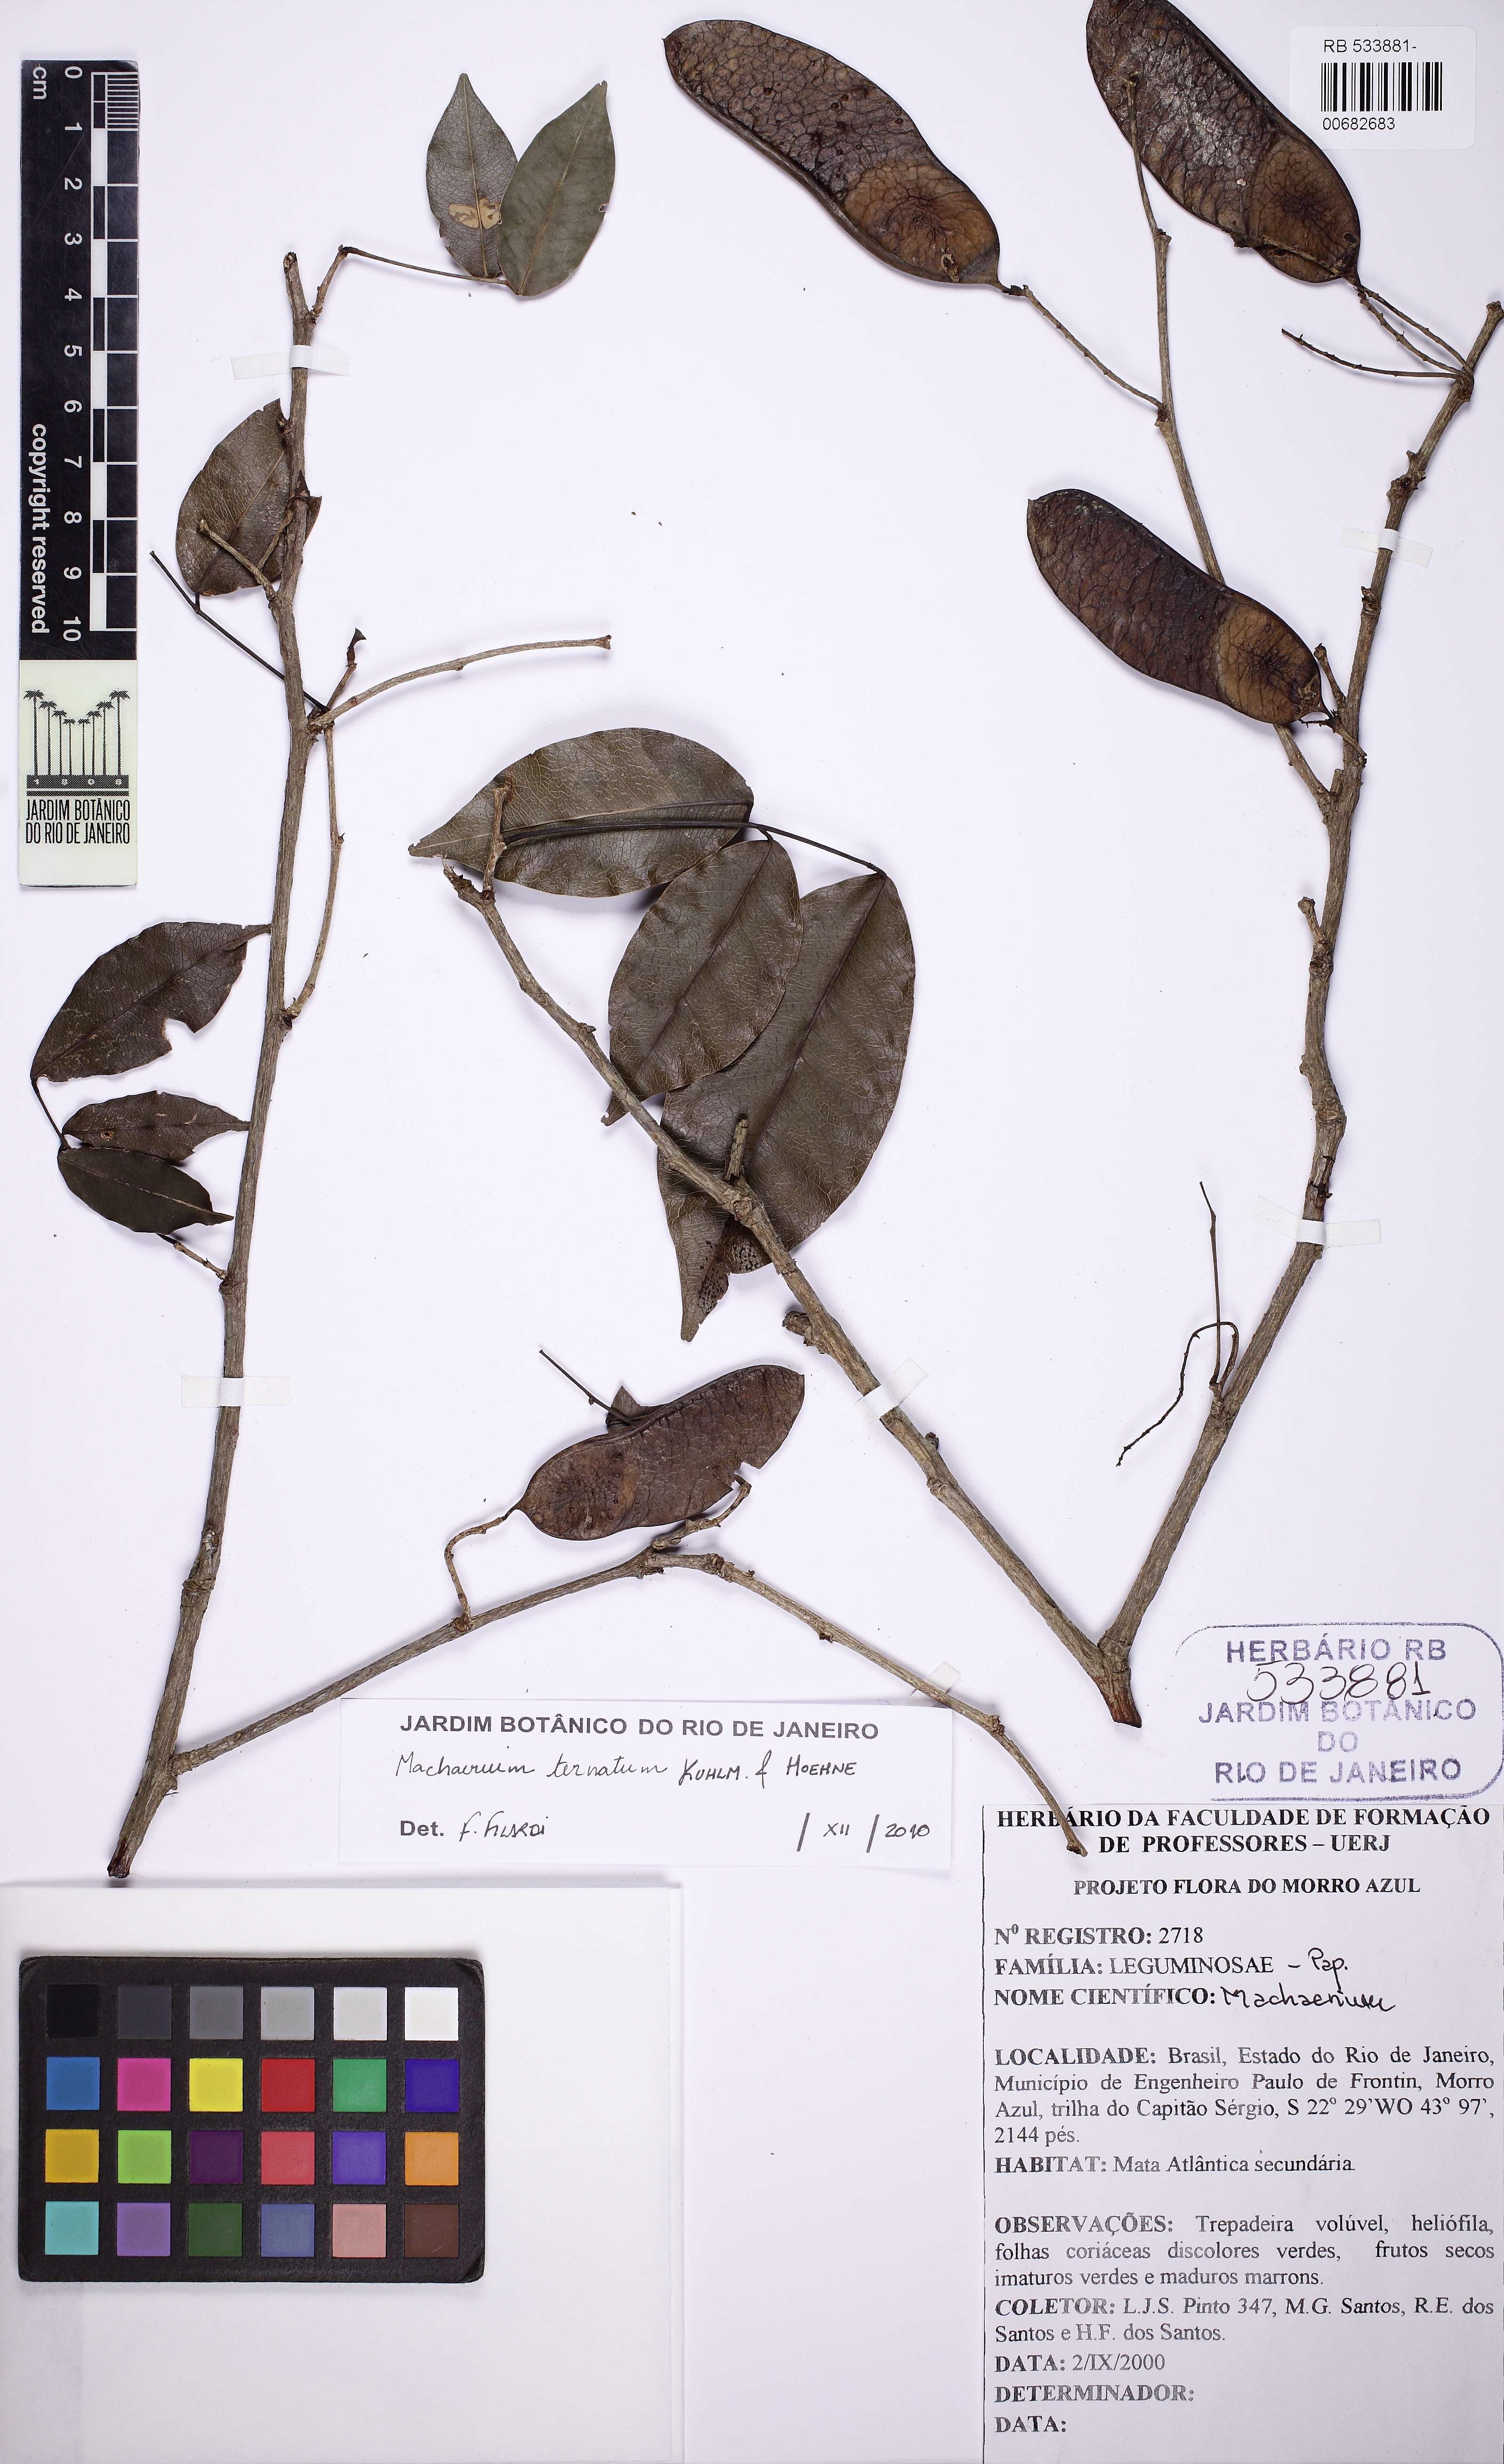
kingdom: Plantae
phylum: Tracheophyta
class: Magnoliopsida
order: Fabales
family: Fabaceae
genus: Machaerium
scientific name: Machaerium ternatum
